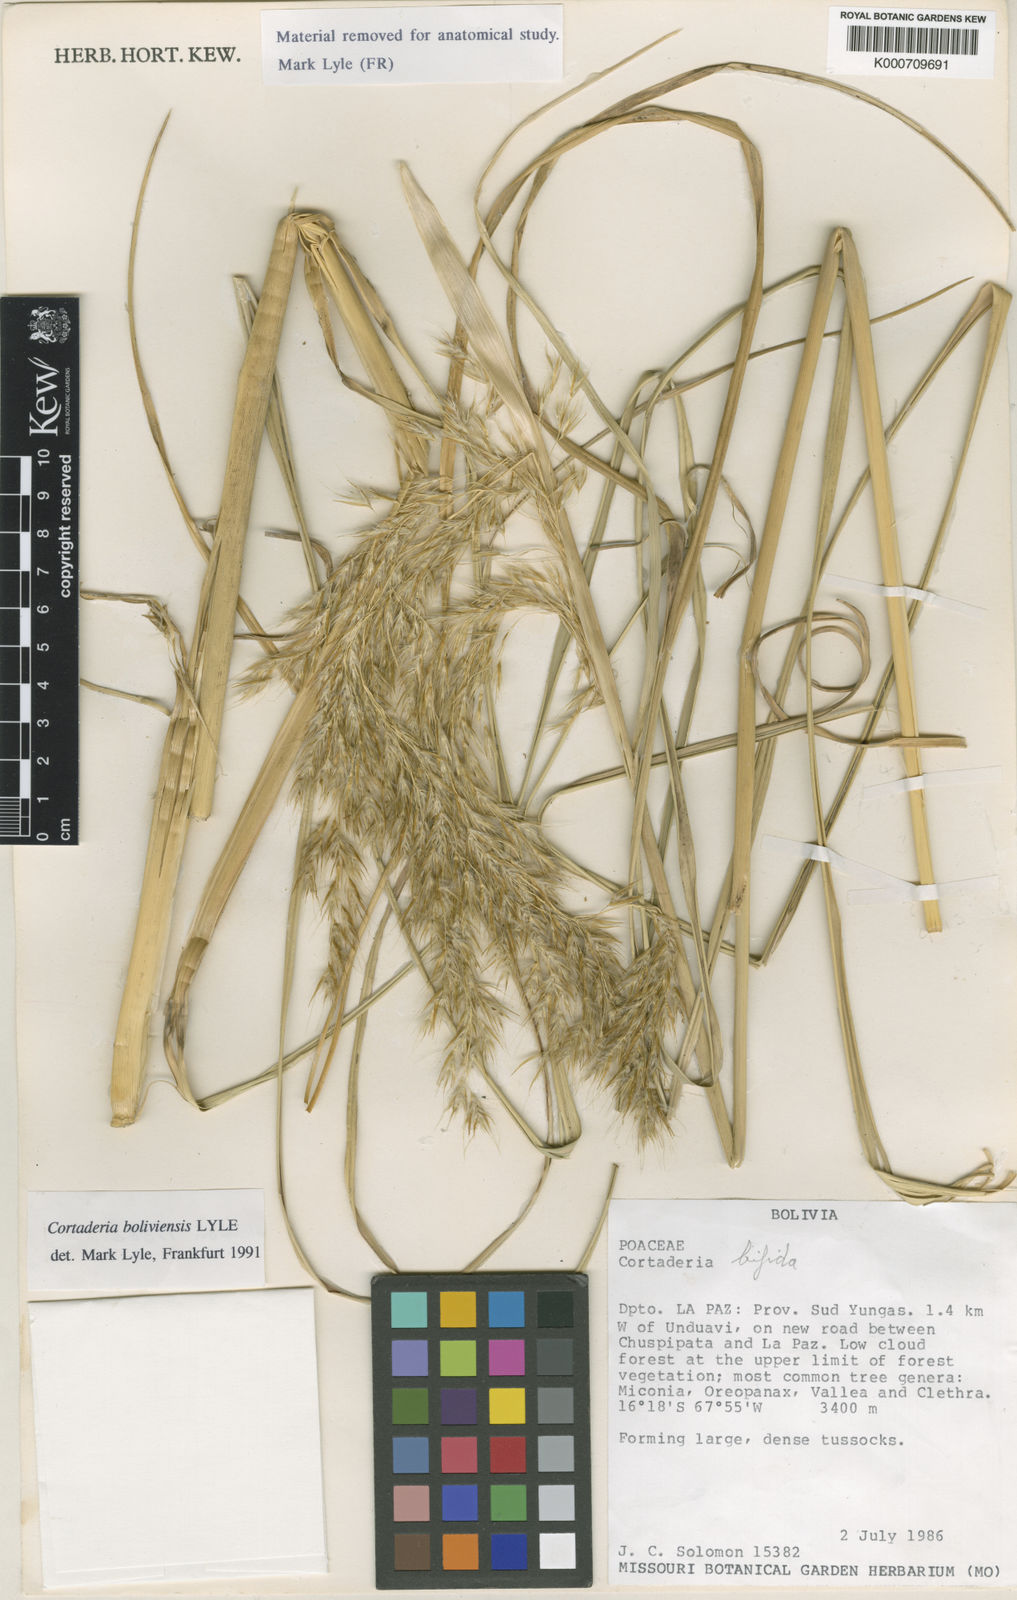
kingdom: Plantae
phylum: Tracheophyta
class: Liliopsida
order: Poales
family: Poaceae
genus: Cortaderia
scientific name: Cortaderia boliviensis
